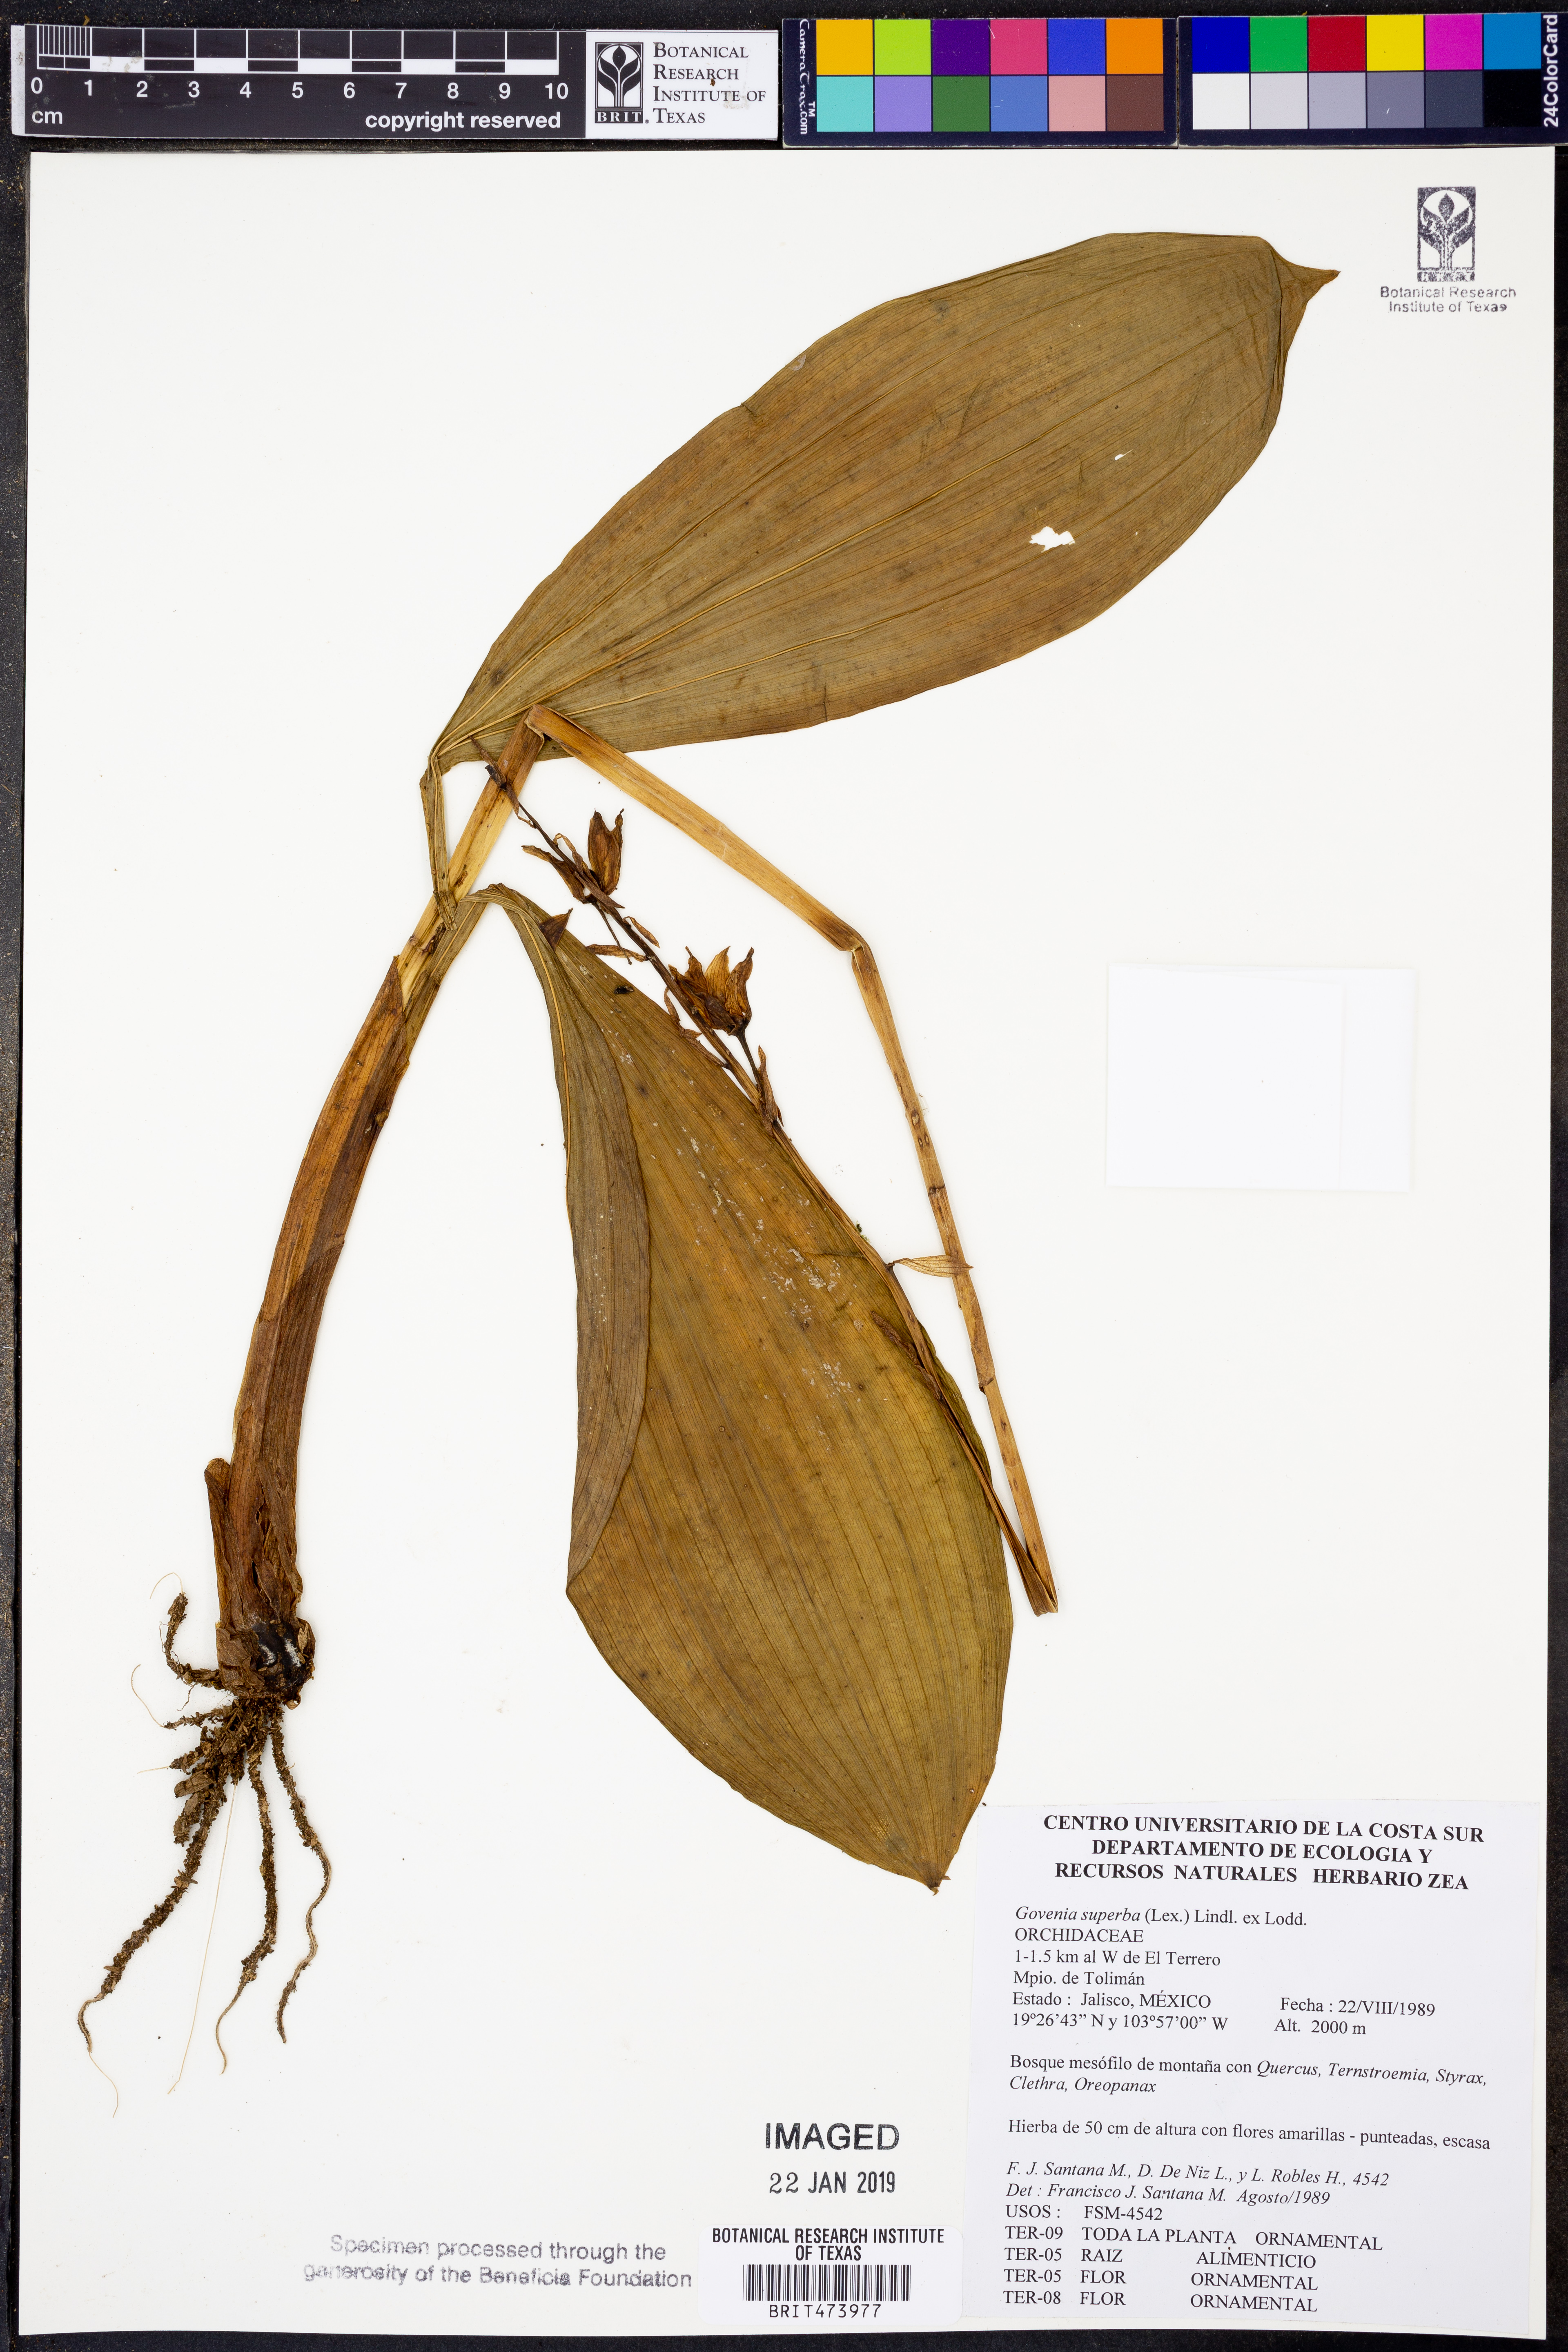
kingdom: Plantae
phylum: Tracheophyta
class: Liliopsida
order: Asparagales
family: Orchidaceae
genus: Govenia
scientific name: Govenia superba
